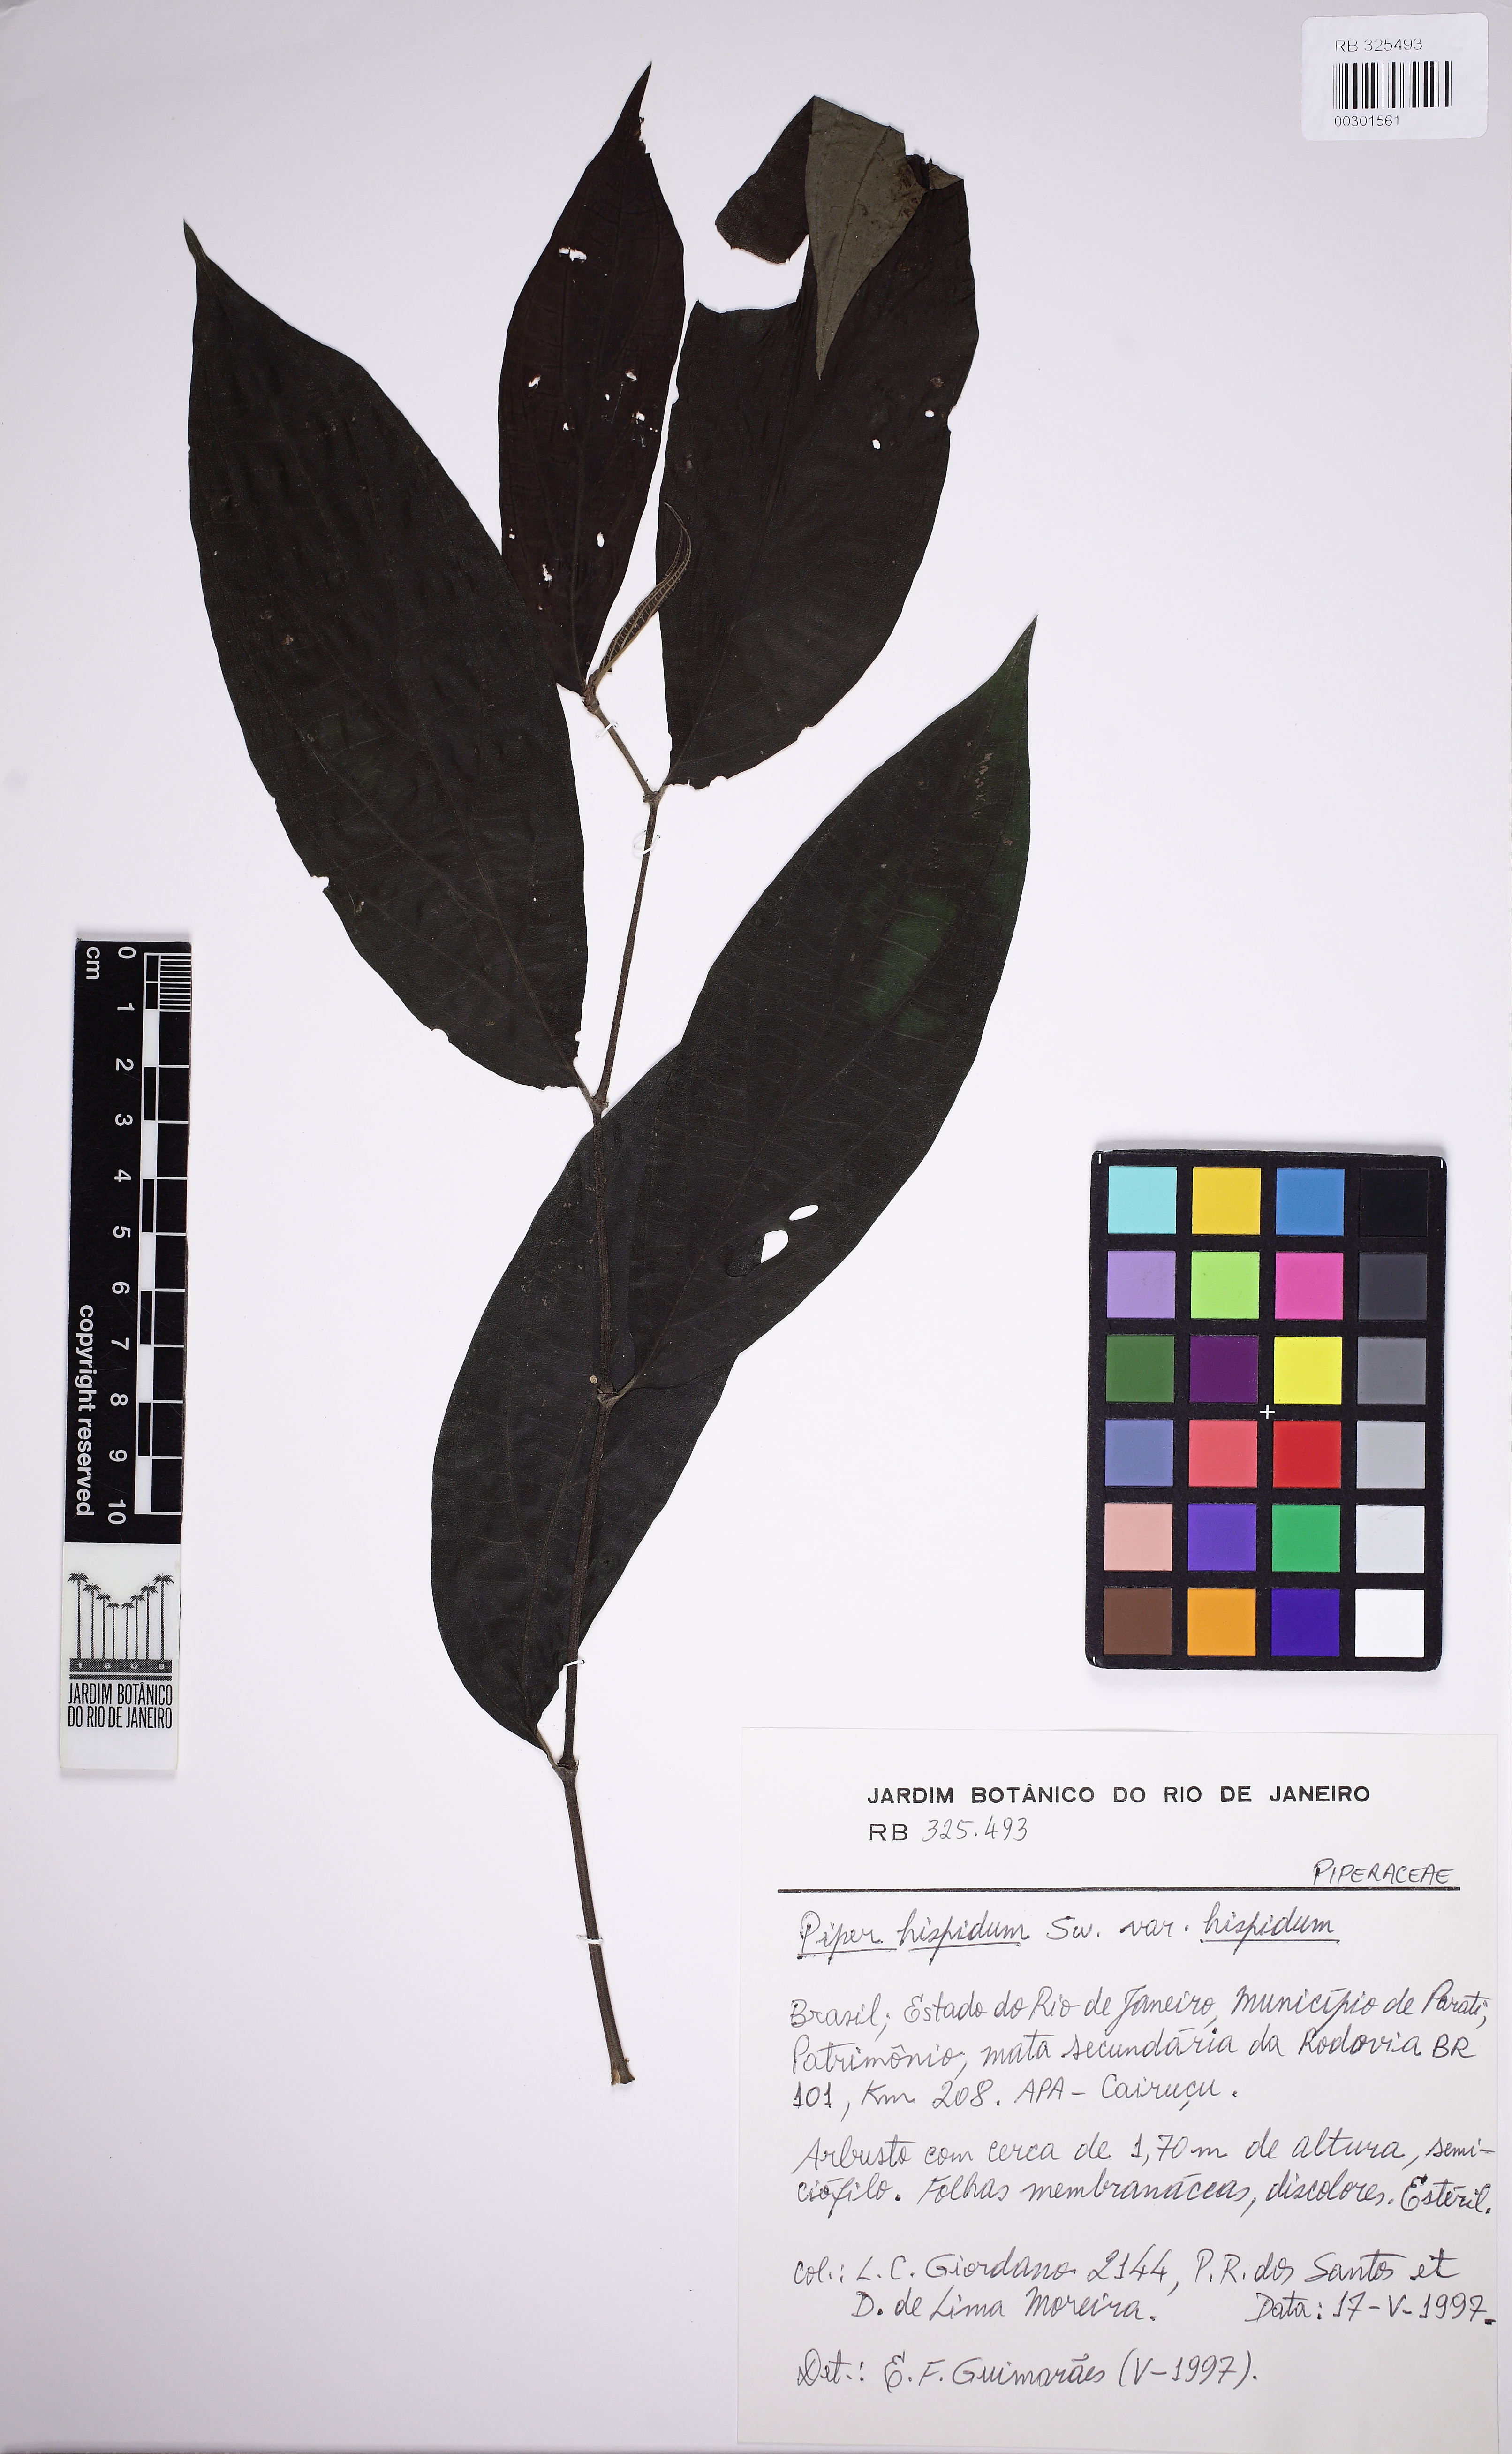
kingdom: Plantae
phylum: Tracheophyta
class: Magnoliopsida
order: Piperales
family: Piperaceae
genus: Piper
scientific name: Piper hispidum
